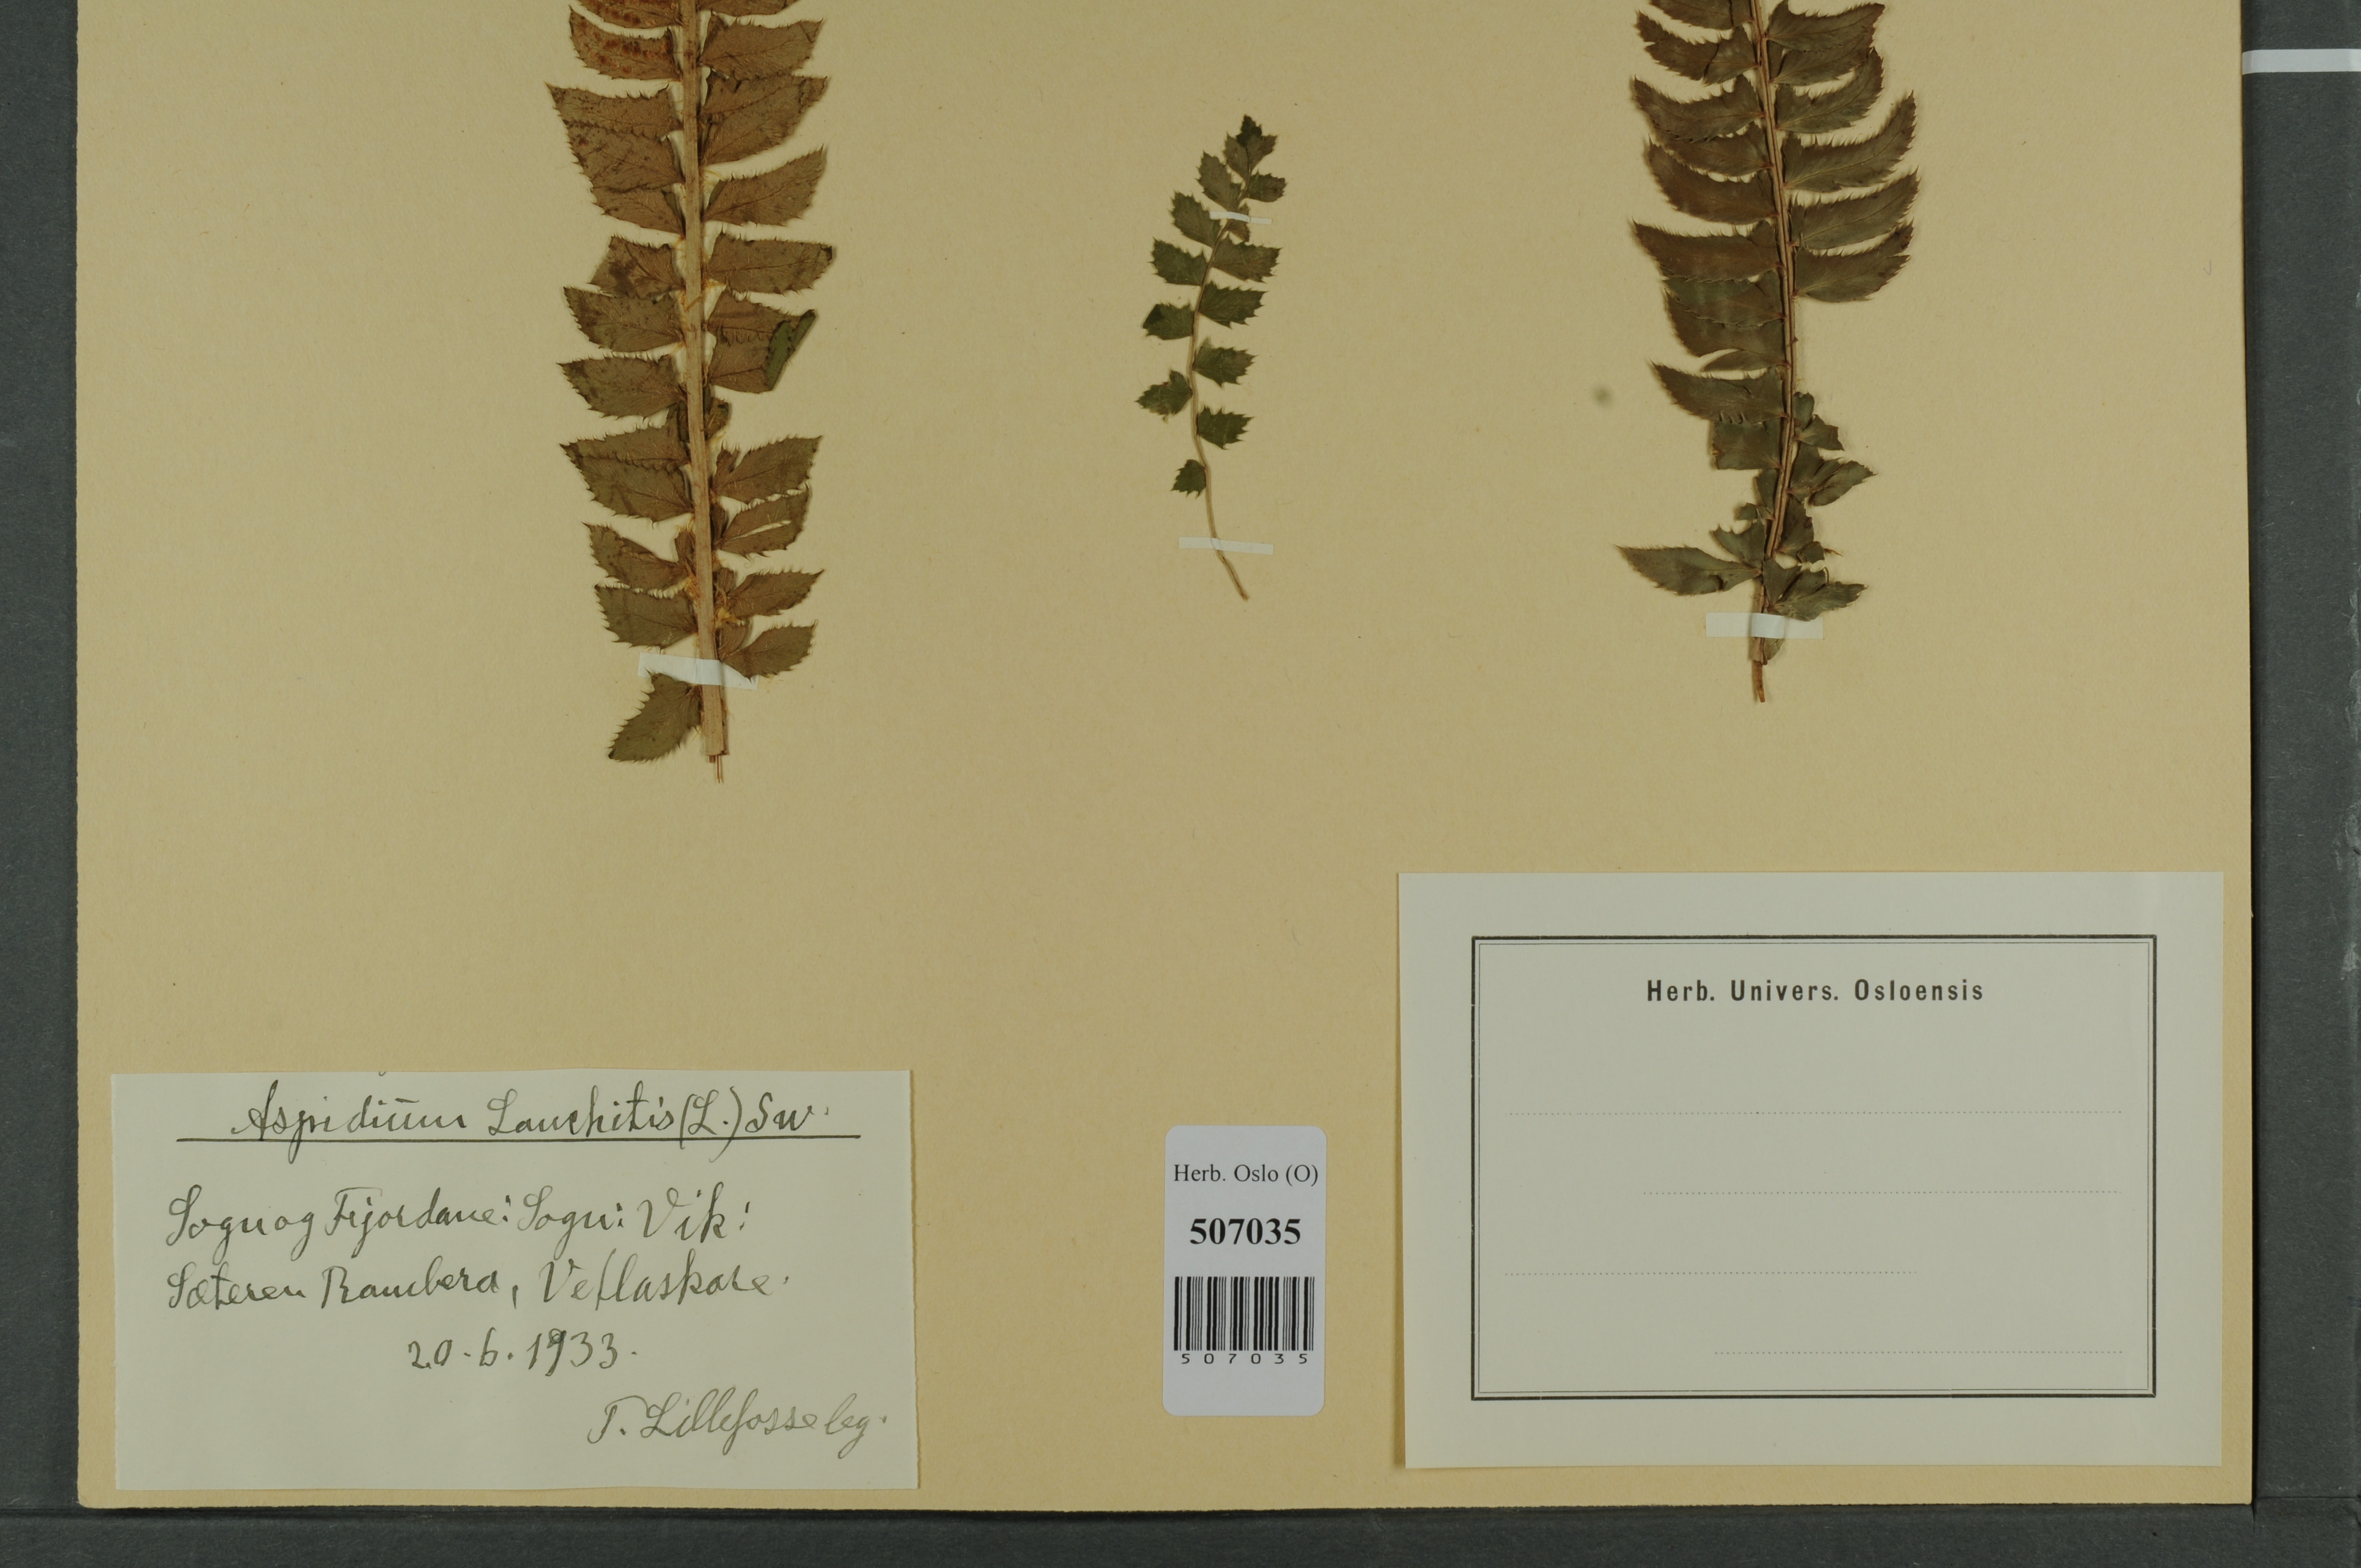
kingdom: Plantae
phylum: Tracheophyta
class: Polypodiopsida
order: Polypodiales
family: Dryopteridaceae
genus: Polystichum
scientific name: Polystichum lonchitis
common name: Holly fern
